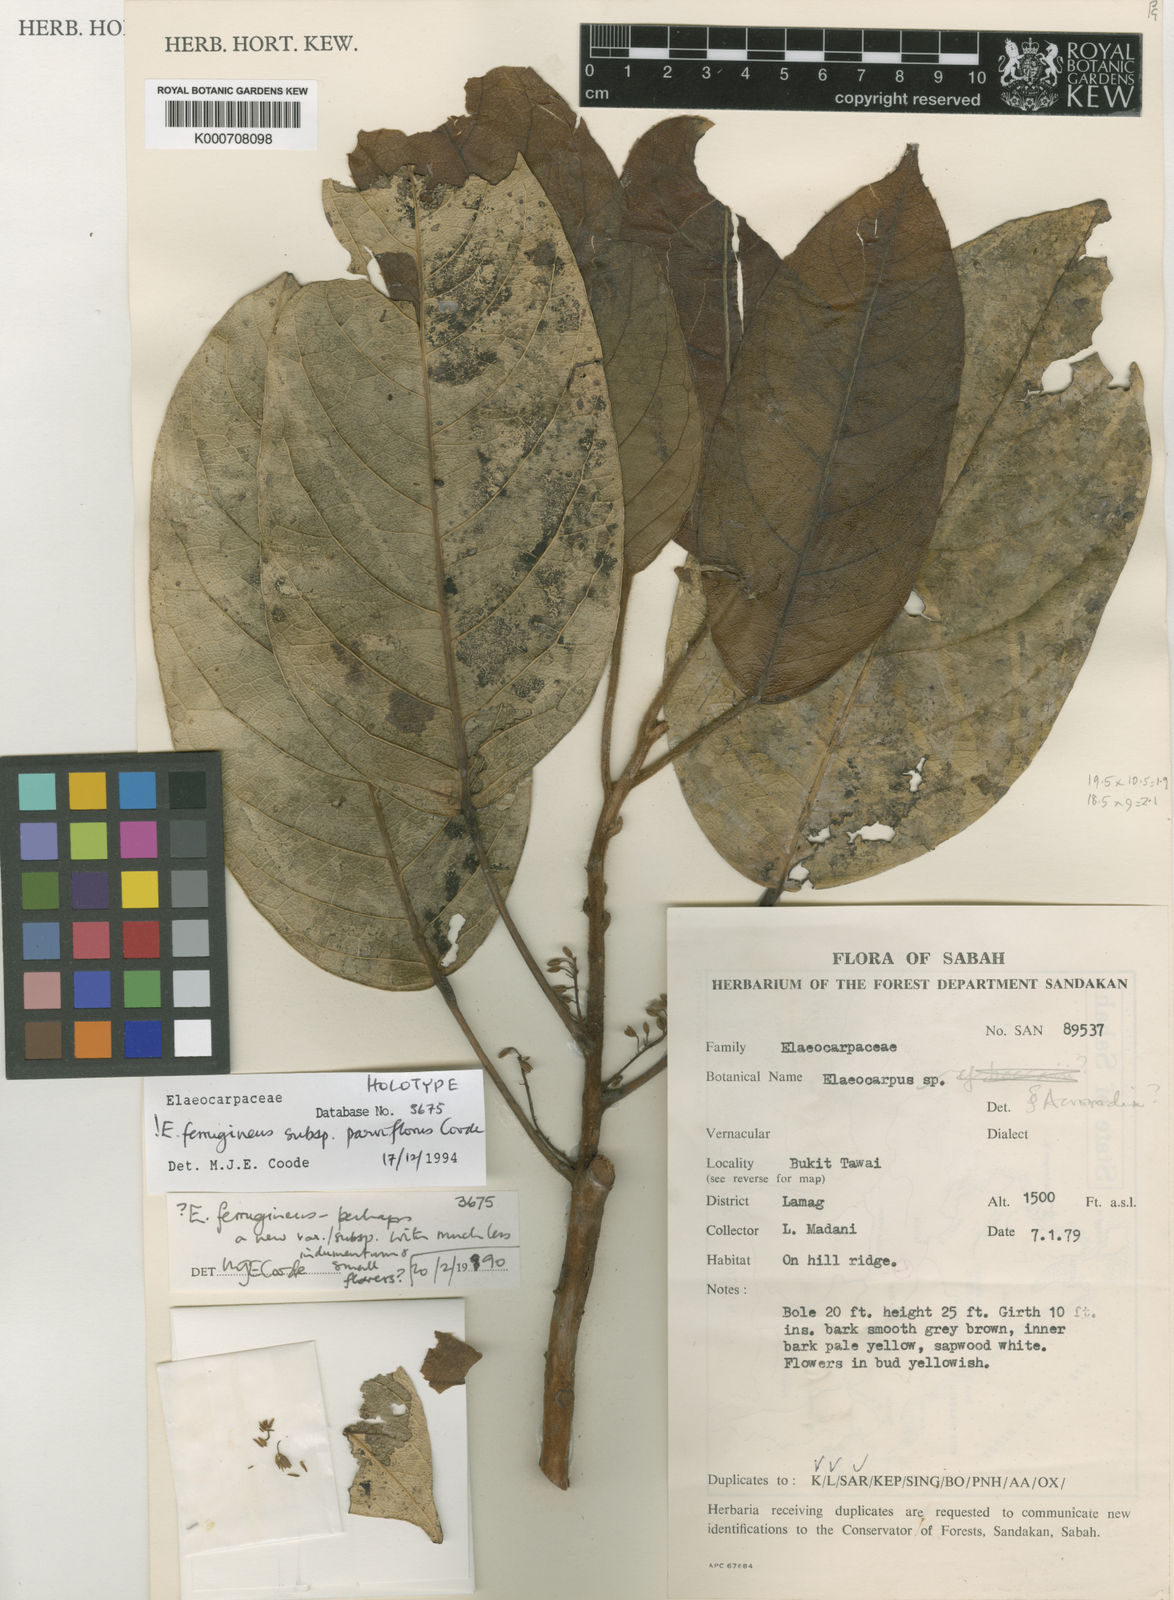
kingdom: Plantae
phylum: Tracheophyta
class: Magnoliopsida
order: Oxalidales
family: Elaeocarpaceae
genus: Elaeocarpus
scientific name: Elaeocarpus ferrugineus
